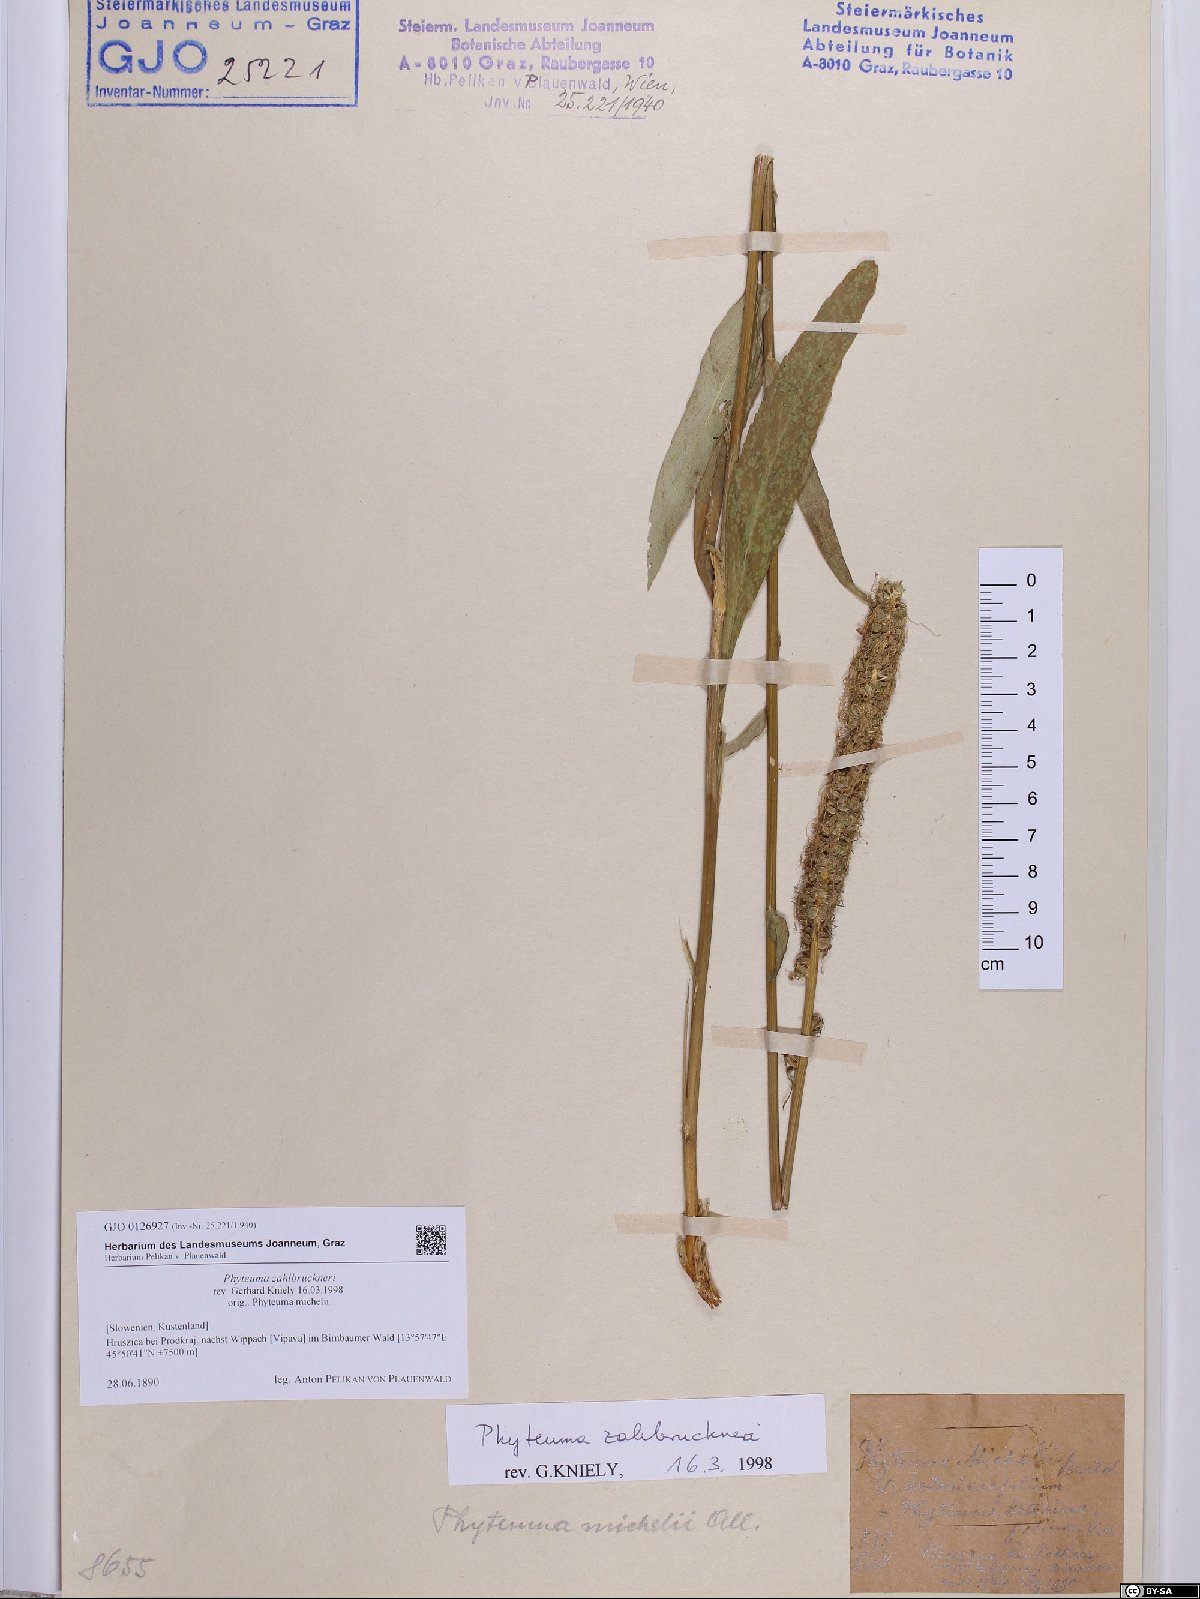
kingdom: Plantae
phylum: Tracheophyta
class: Magnoliopsida
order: Asterales
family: Campanulaceae
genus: Phyteuma
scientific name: Phyteuma persicifolium
